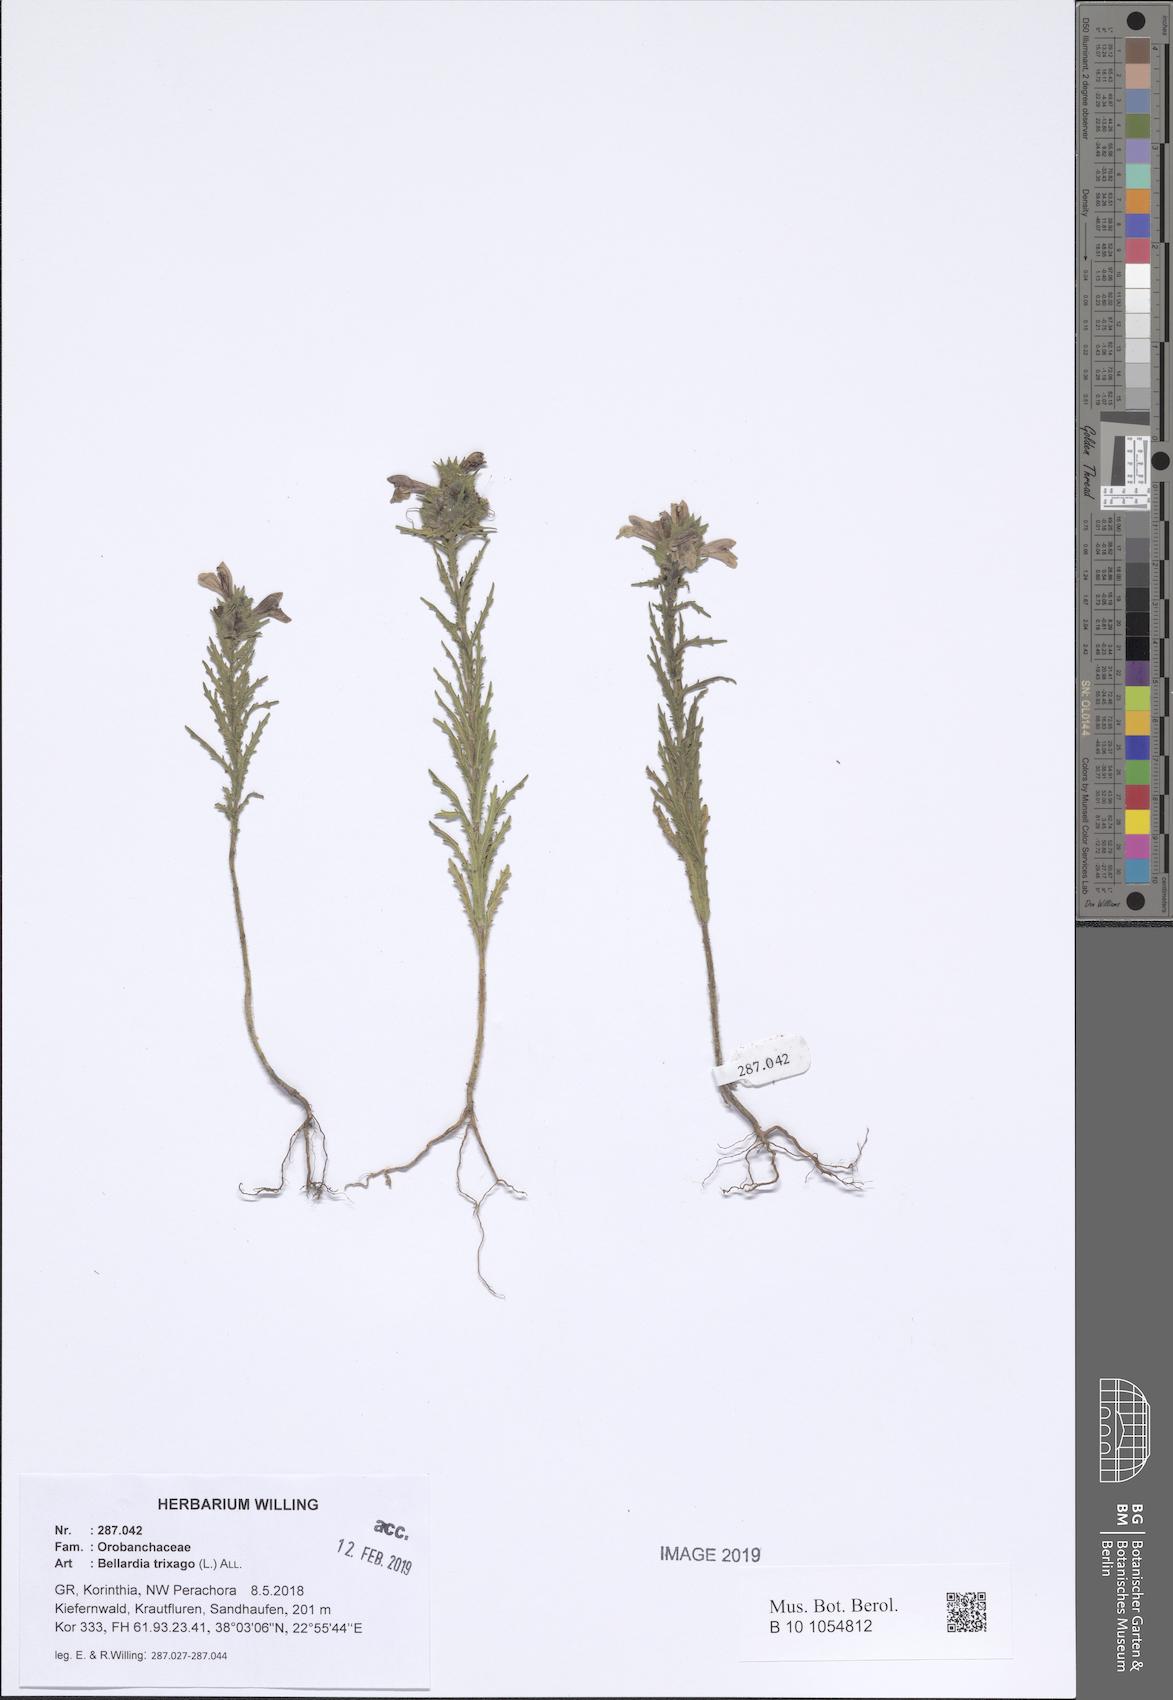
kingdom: Plantae
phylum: Tracheophyta
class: Magnoliopsida
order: Lamiales
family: Orobanchaceae
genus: Bellardia
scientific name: Bellardia trixago
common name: Mediterranean lineseed
